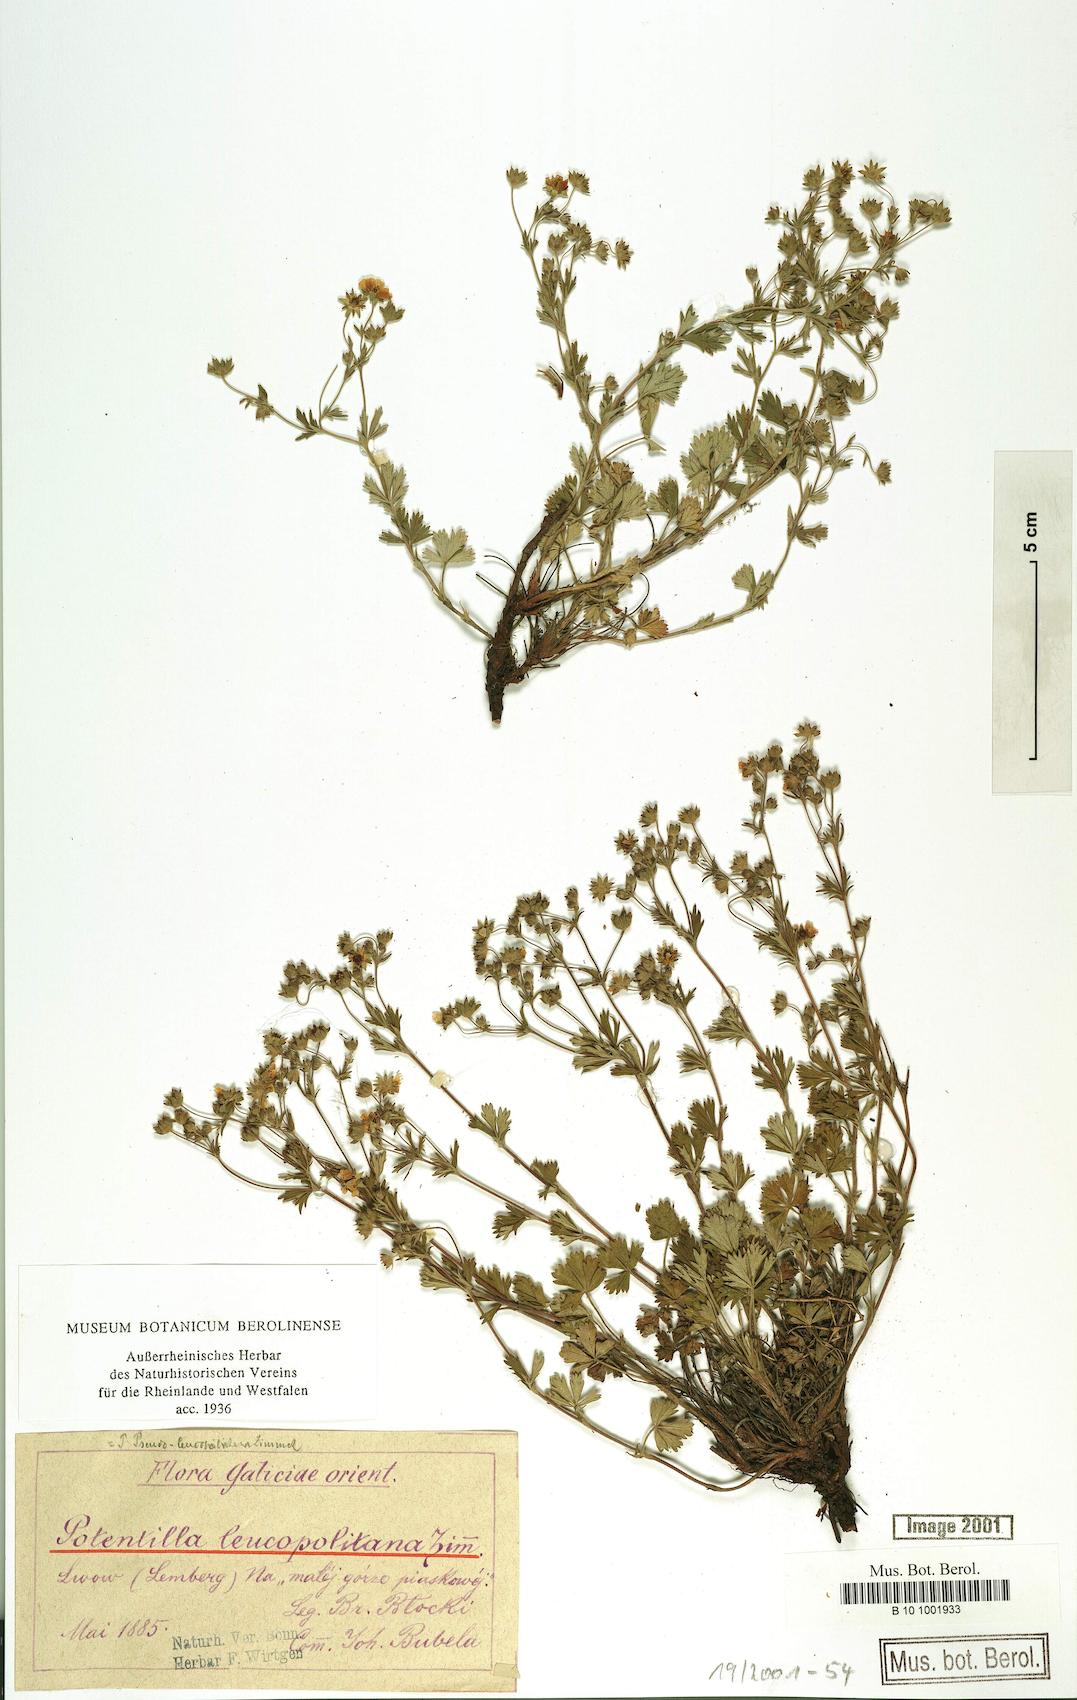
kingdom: Plantae
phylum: Tracheophyta
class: Magnoliopsida
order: Rosales
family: Rosaceae
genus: Potentilla
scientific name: Potentilla thyrsiflora
